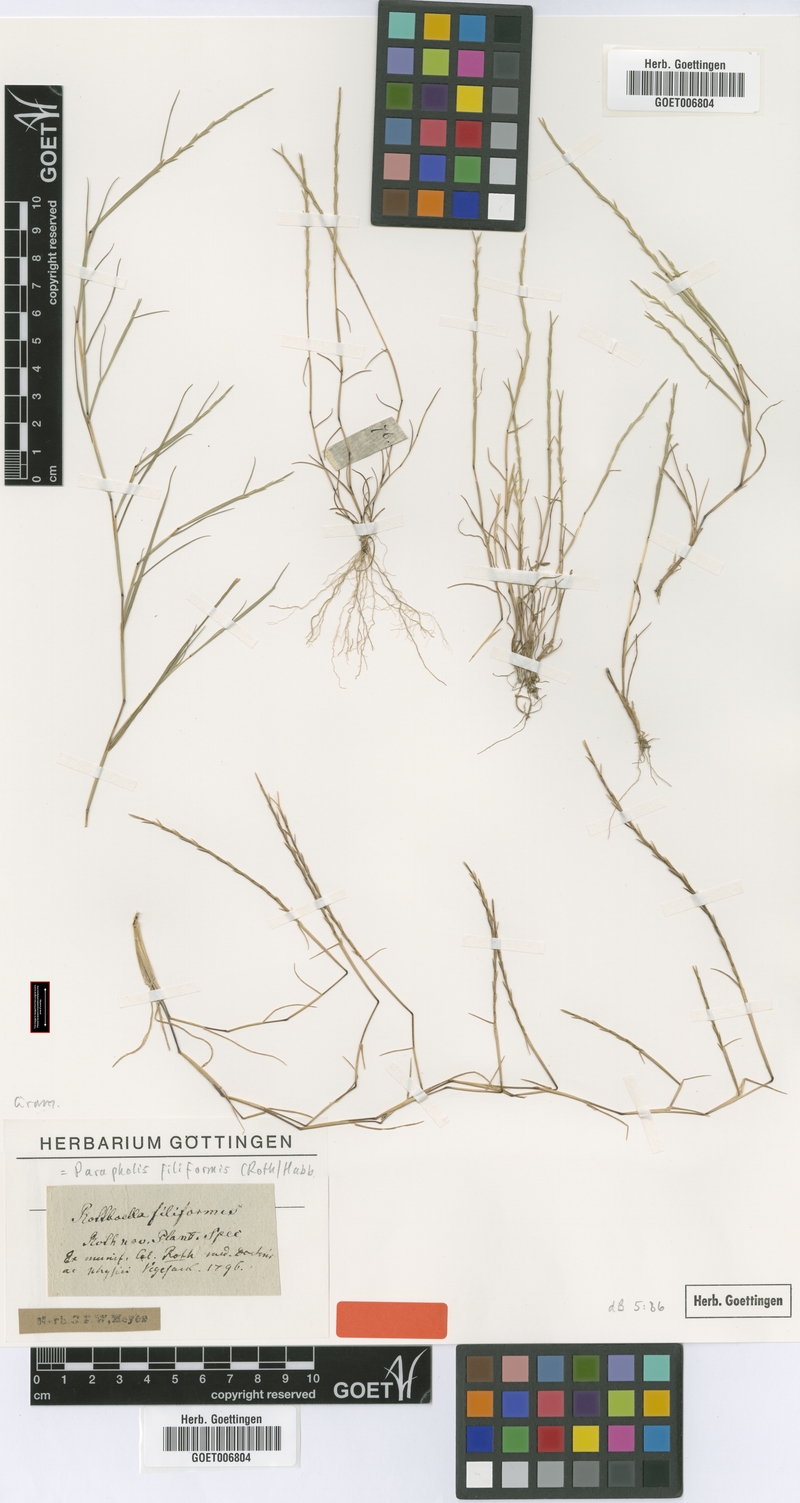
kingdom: Plantae
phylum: Tracheophyta
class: Liliopsida
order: Poales
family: Poaceae
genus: Parapholis
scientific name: Parapholis filiformis
